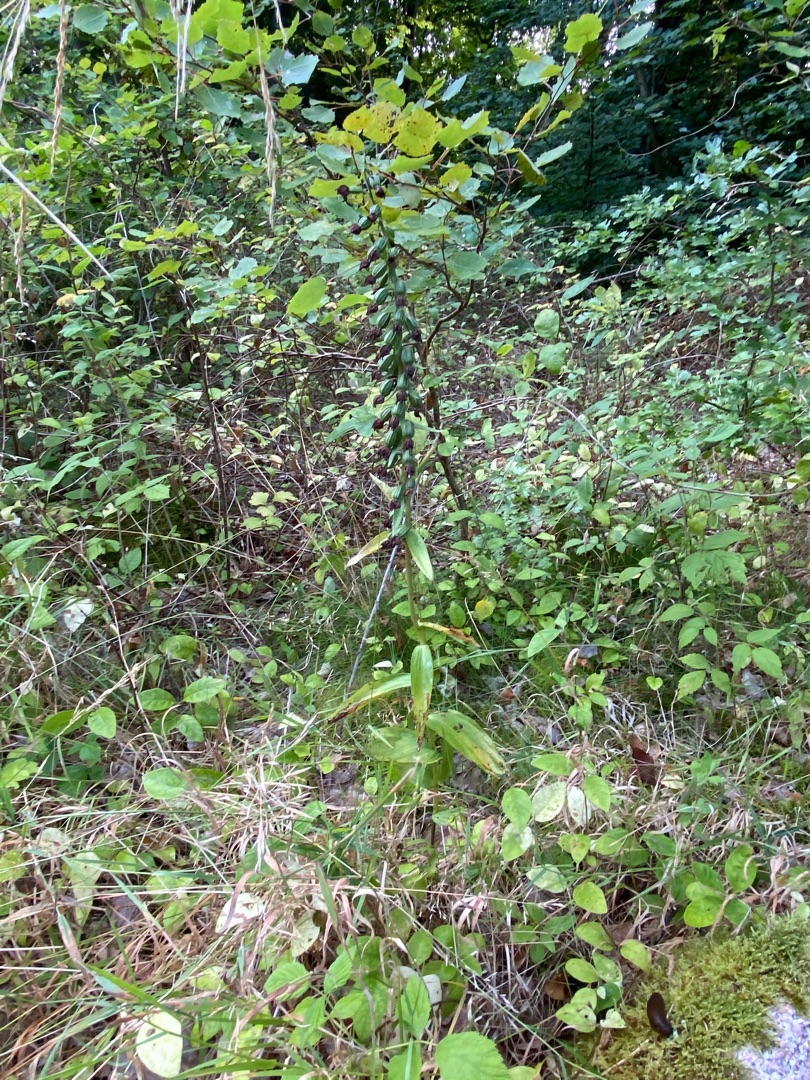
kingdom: Plantae
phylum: Tracheophyta
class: Liliopsida
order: Asparagales
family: Orchidaceae
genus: Epipactis
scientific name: Epipactis helleborine
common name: Skov-hullæbe
